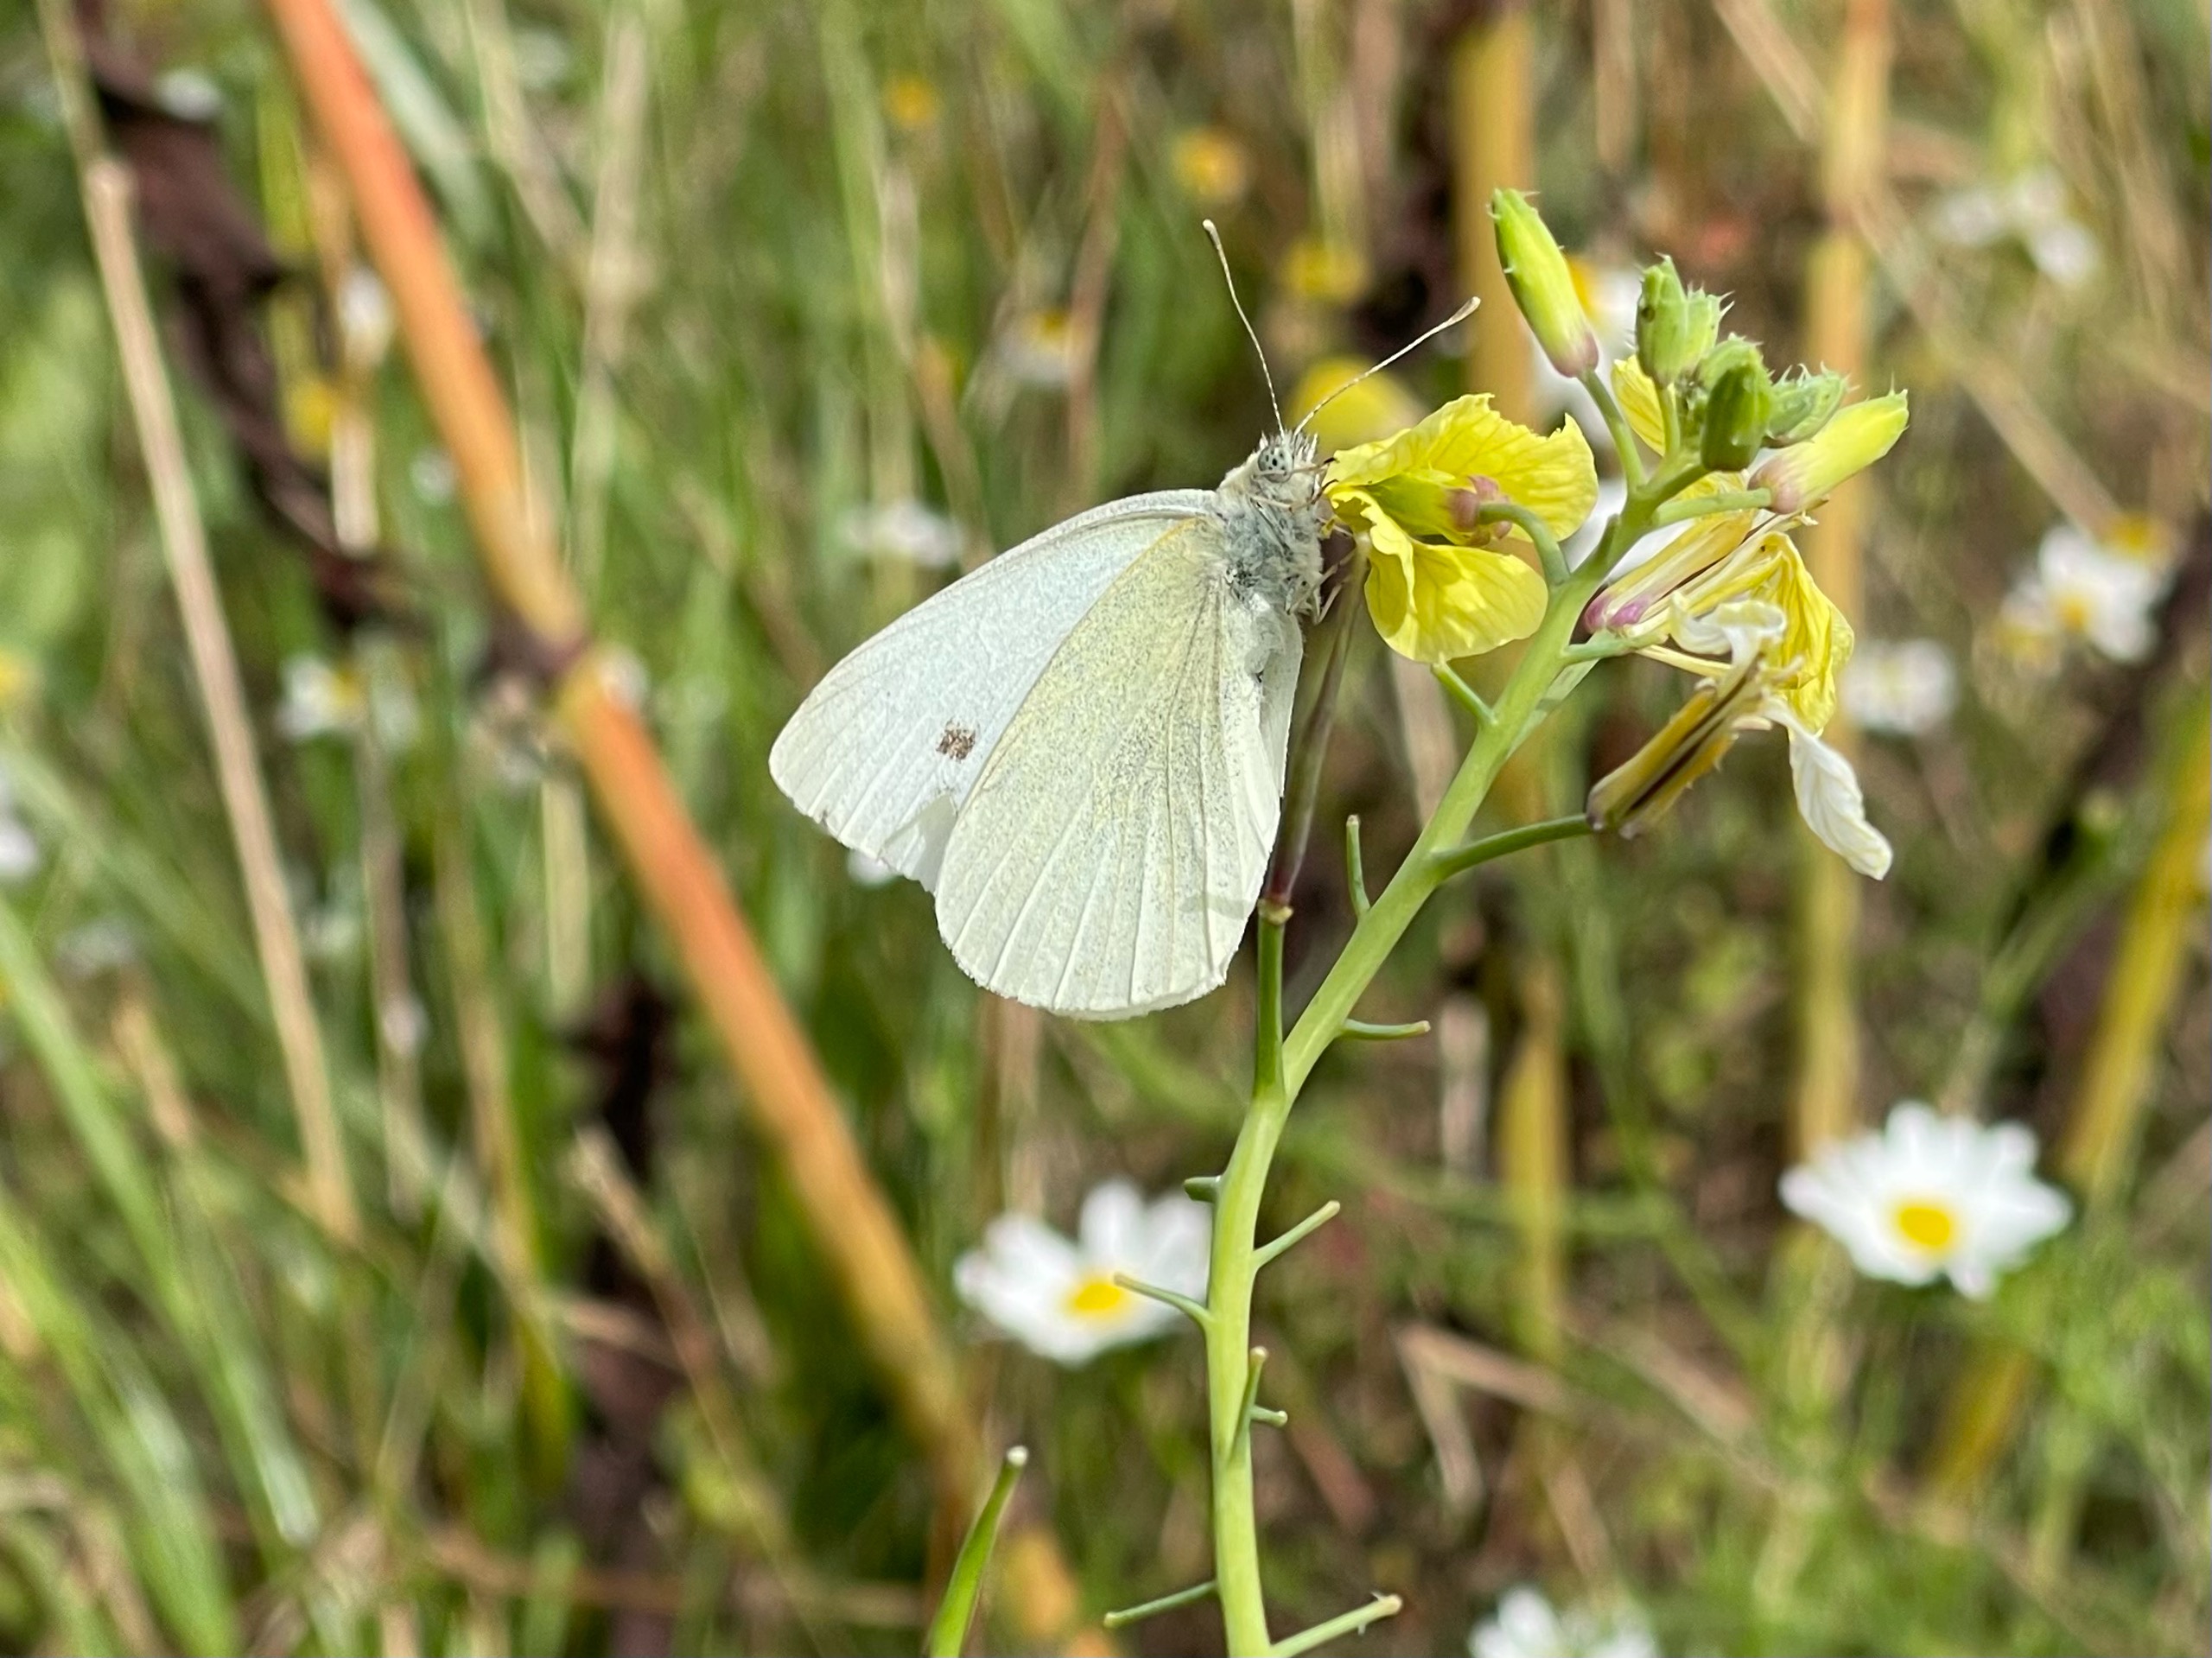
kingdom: Animalia
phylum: Arthropoda
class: Insecta
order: Lepidoptera
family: Pieridae
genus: Pieris
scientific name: Pieris rapae
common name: Lille kålsommerfugl
